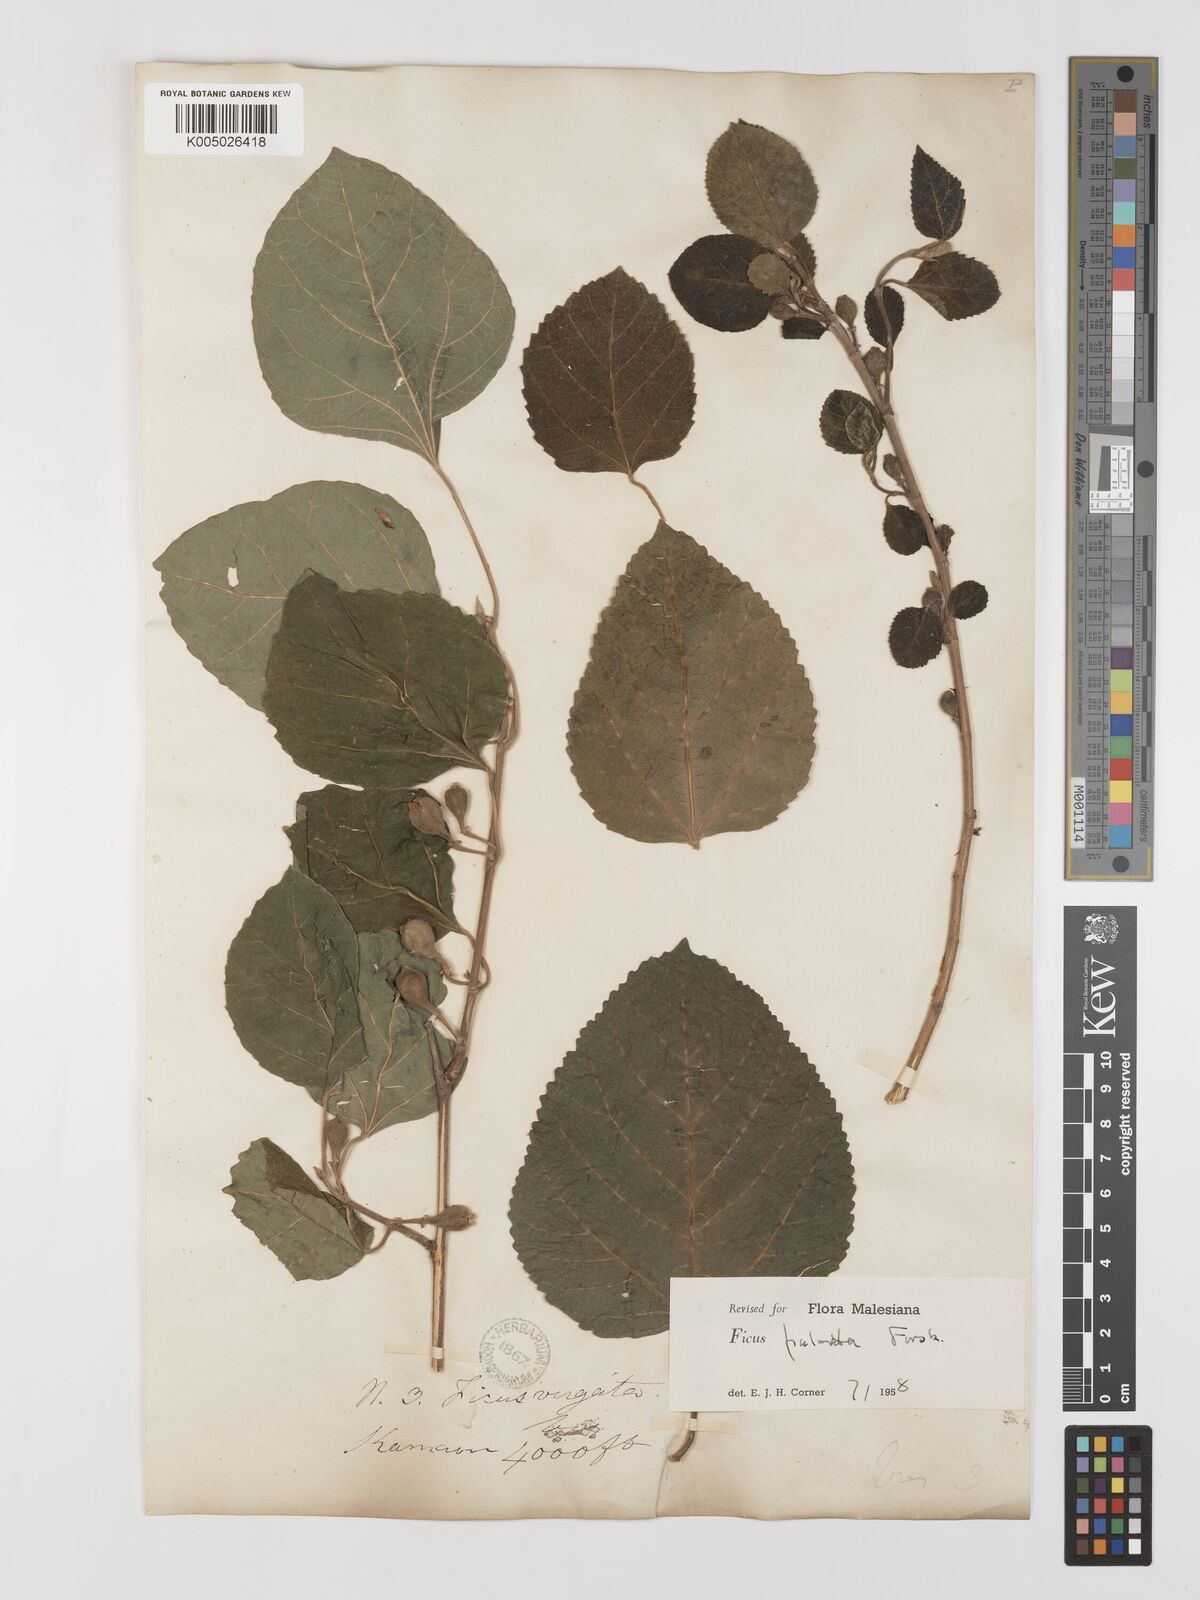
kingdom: Plantae
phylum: Tracheophyta
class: Magnoliopsida
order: Rosales
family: Moraceae
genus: Ficus
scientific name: Ficus
